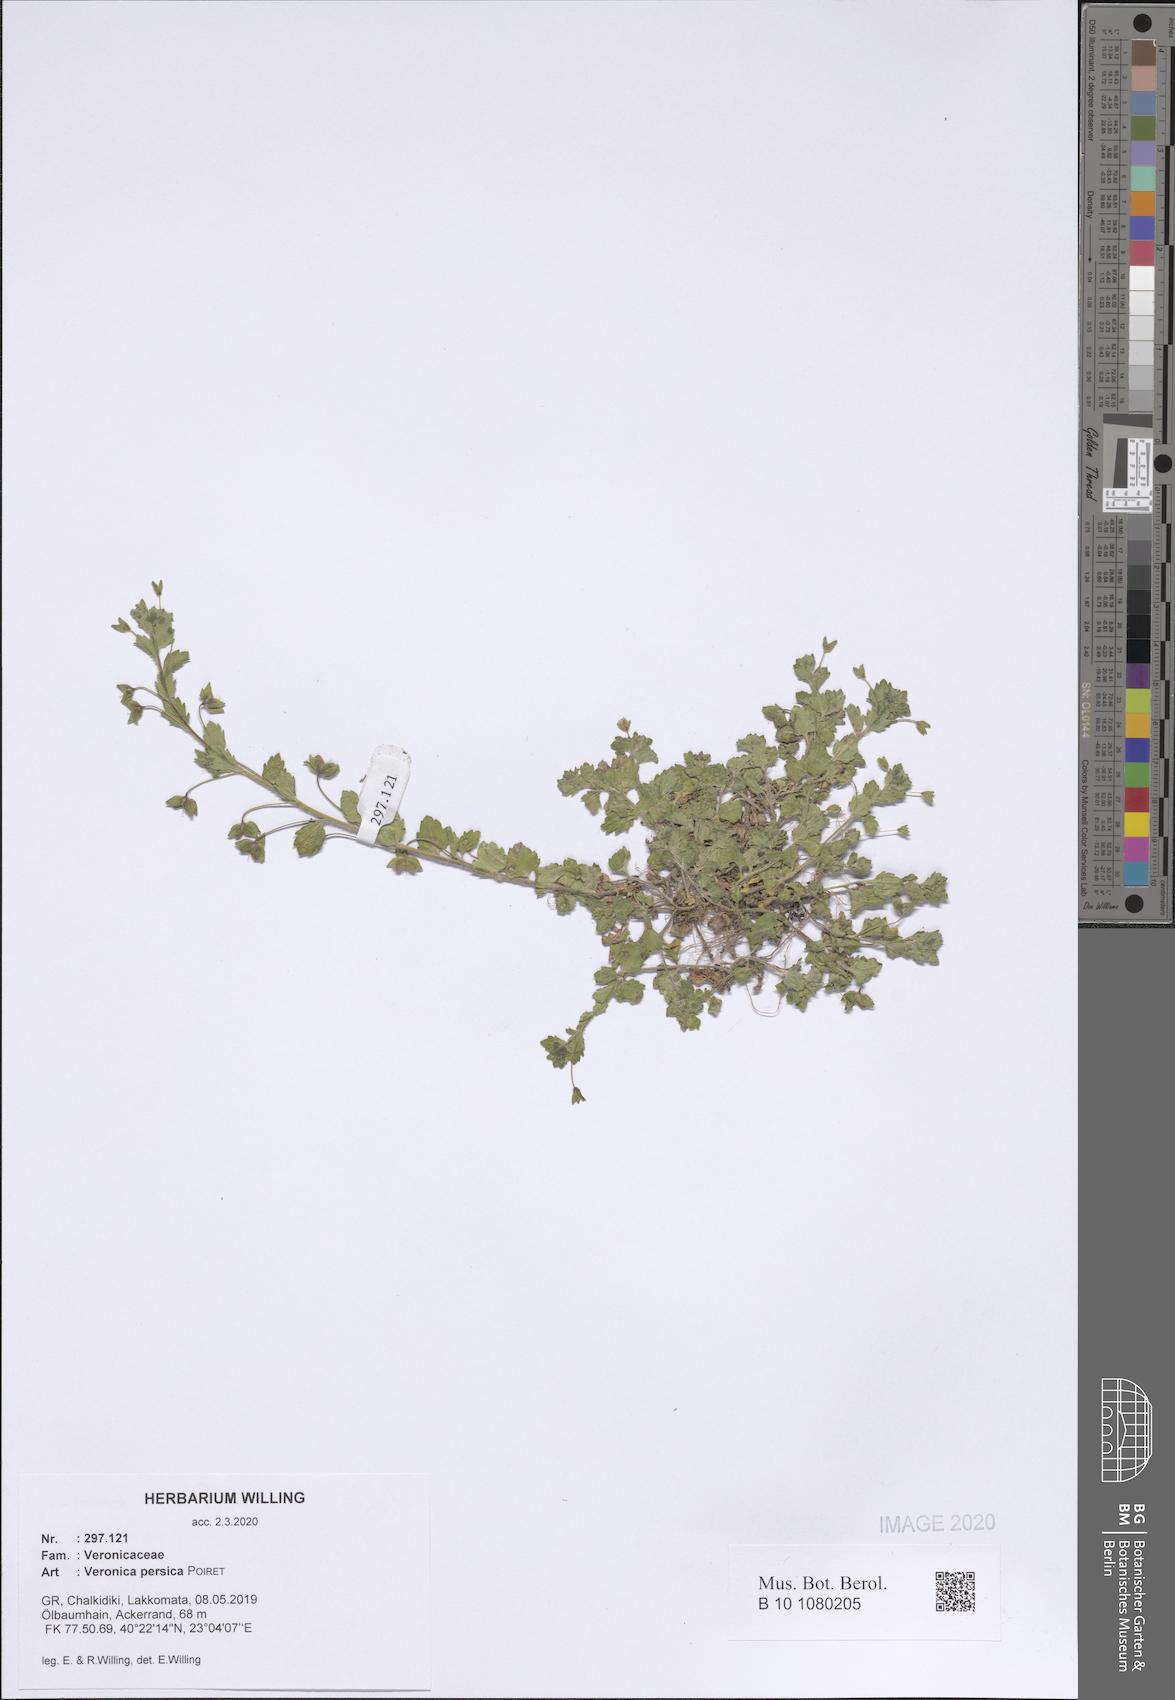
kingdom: Plantae
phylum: Tracheophyta
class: Magnoliopsida
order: Lamiales
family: Plantaginaceae
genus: Veronica
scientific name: Veronica persica
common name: Common field-speedwell
